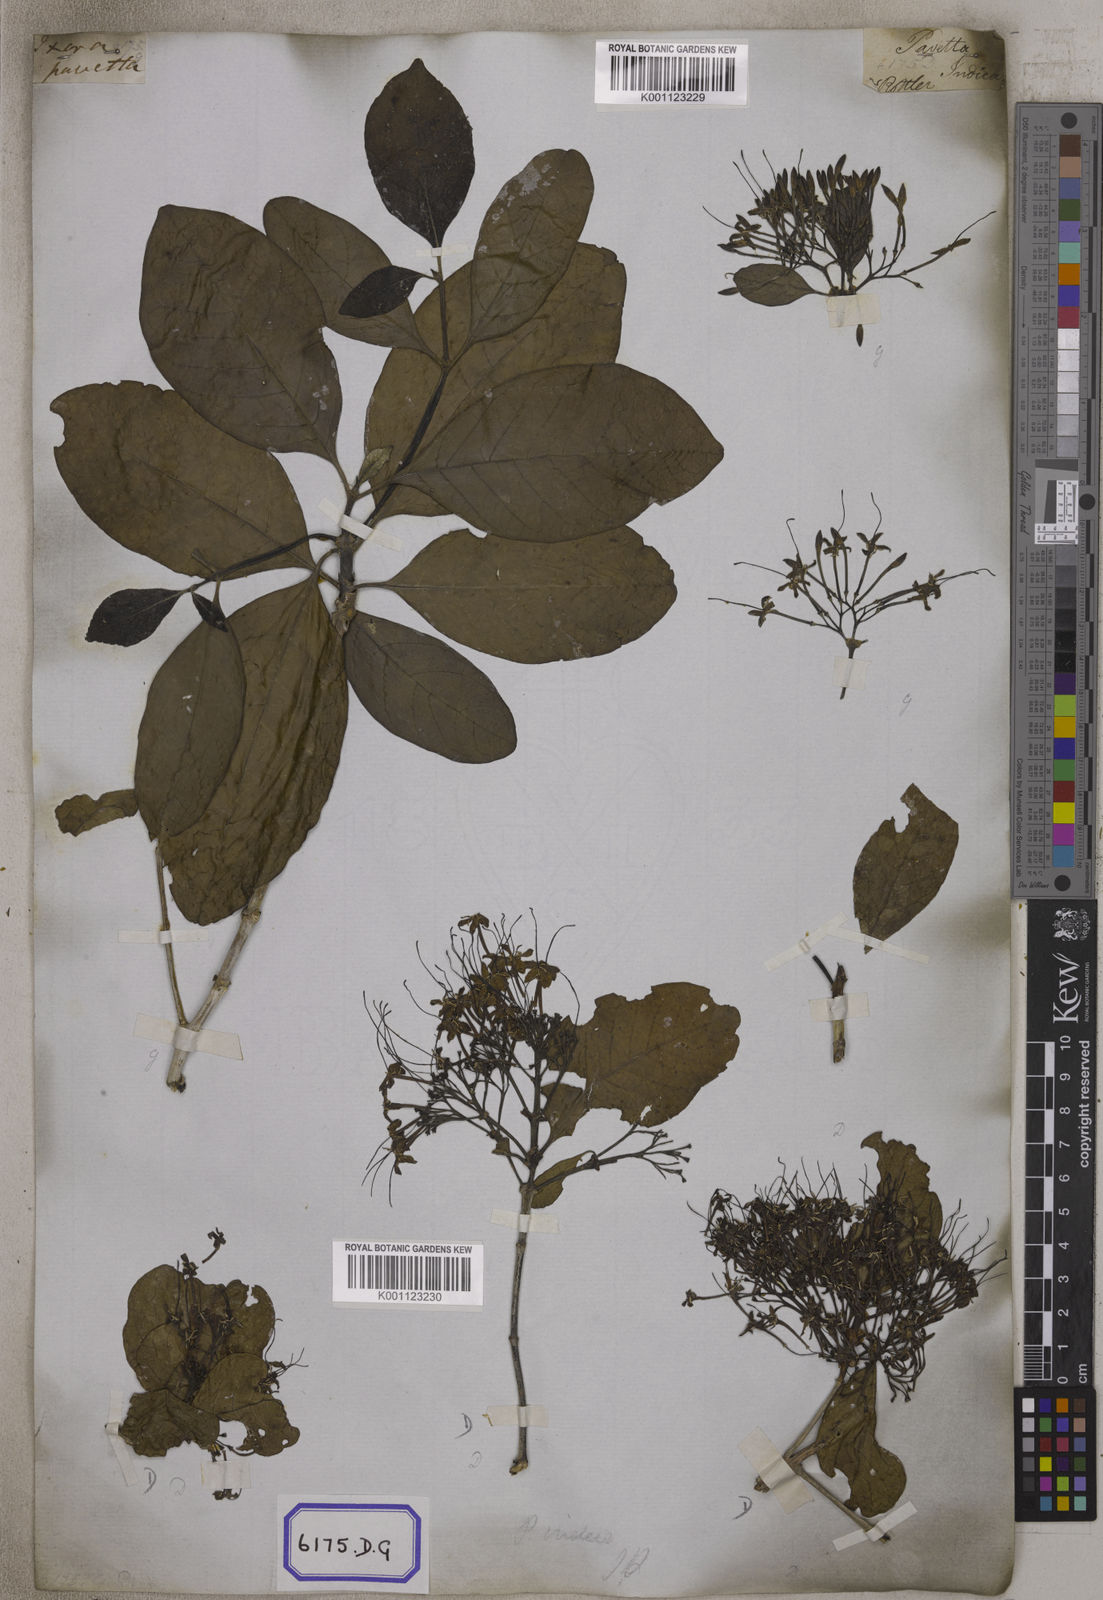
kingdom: Plantae
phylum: Tracheophyta
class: Magnoliopsida
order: Gentianales
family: Rubiaceae
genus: Pavetta
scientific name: Pavetta indica
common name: Indian pavetta
